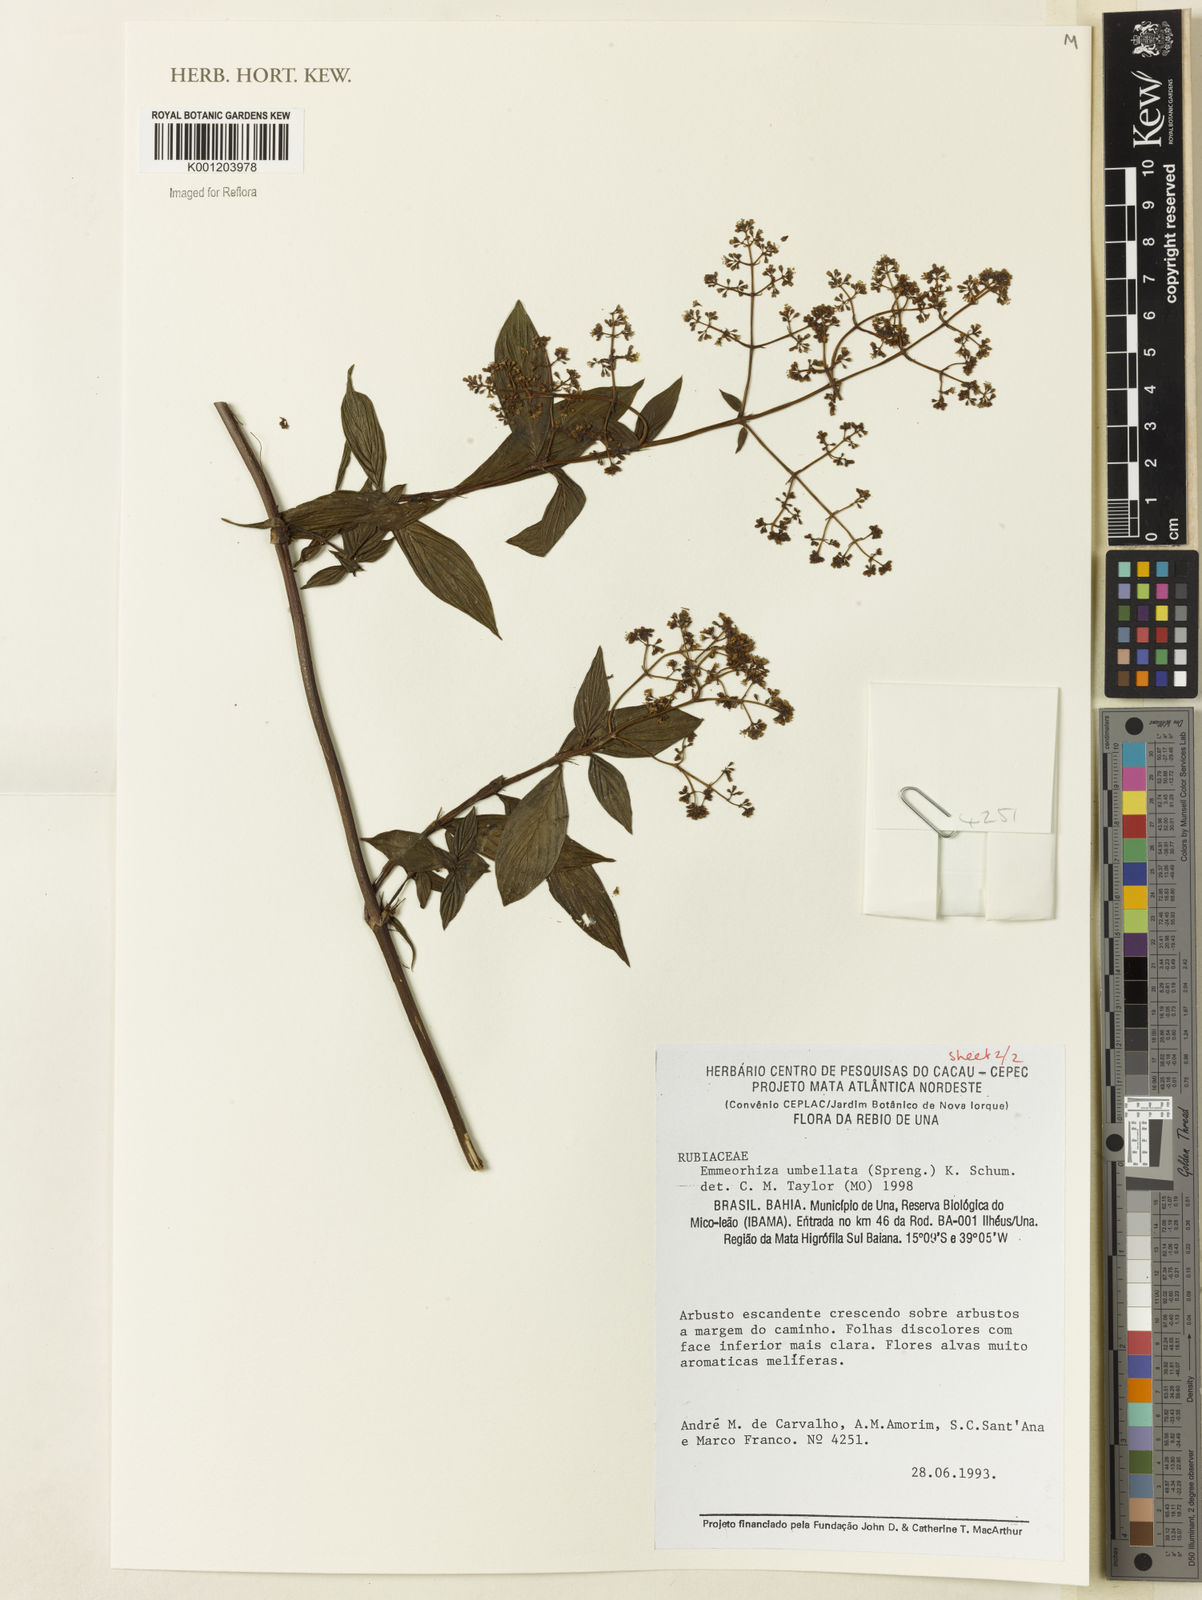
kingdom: Plantae
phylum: Tracheophyta
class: Magnoliopsida
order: Gentianales
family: Rubiaceae
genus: Emmeorhiza
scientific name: Emmeorhiza umbellata
